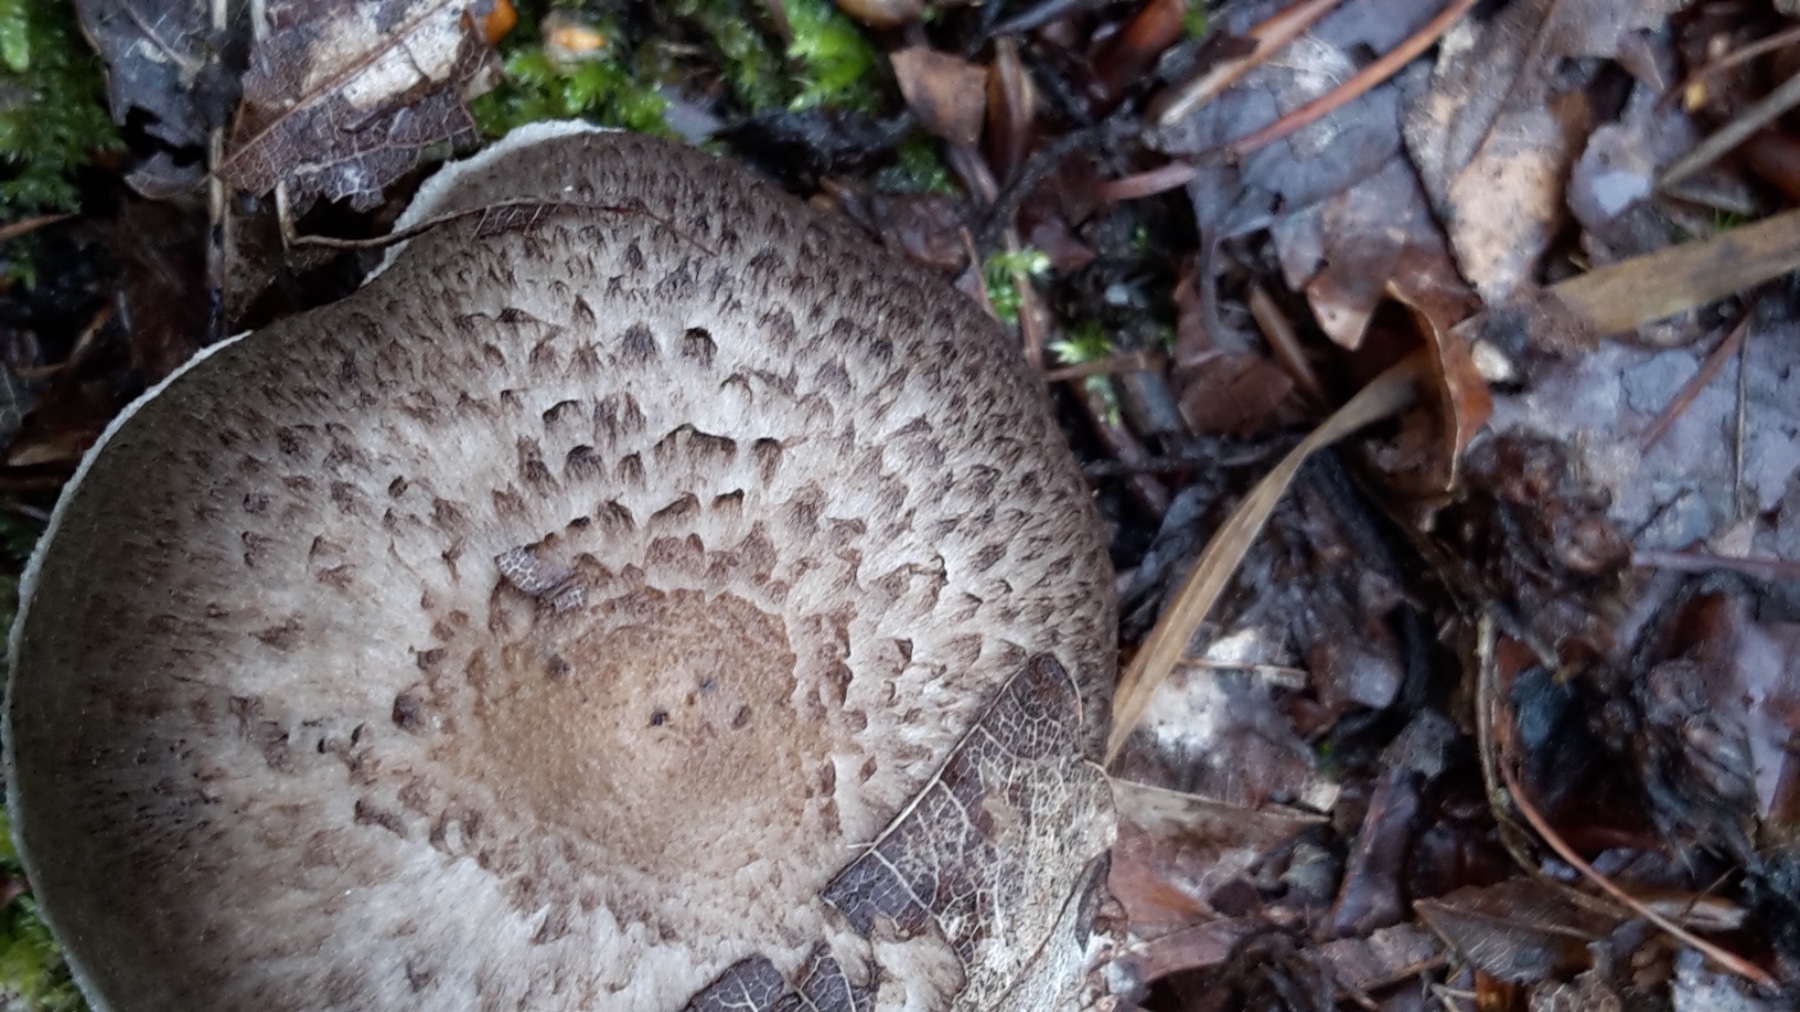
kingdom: Fungi
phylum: Basidiomycota
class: Agaricomycetes
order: Agaricales
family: Tricholomataceae
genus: Tricholoma
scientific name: Tricholoma scalpturatum
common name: gulplettet ridderhat
